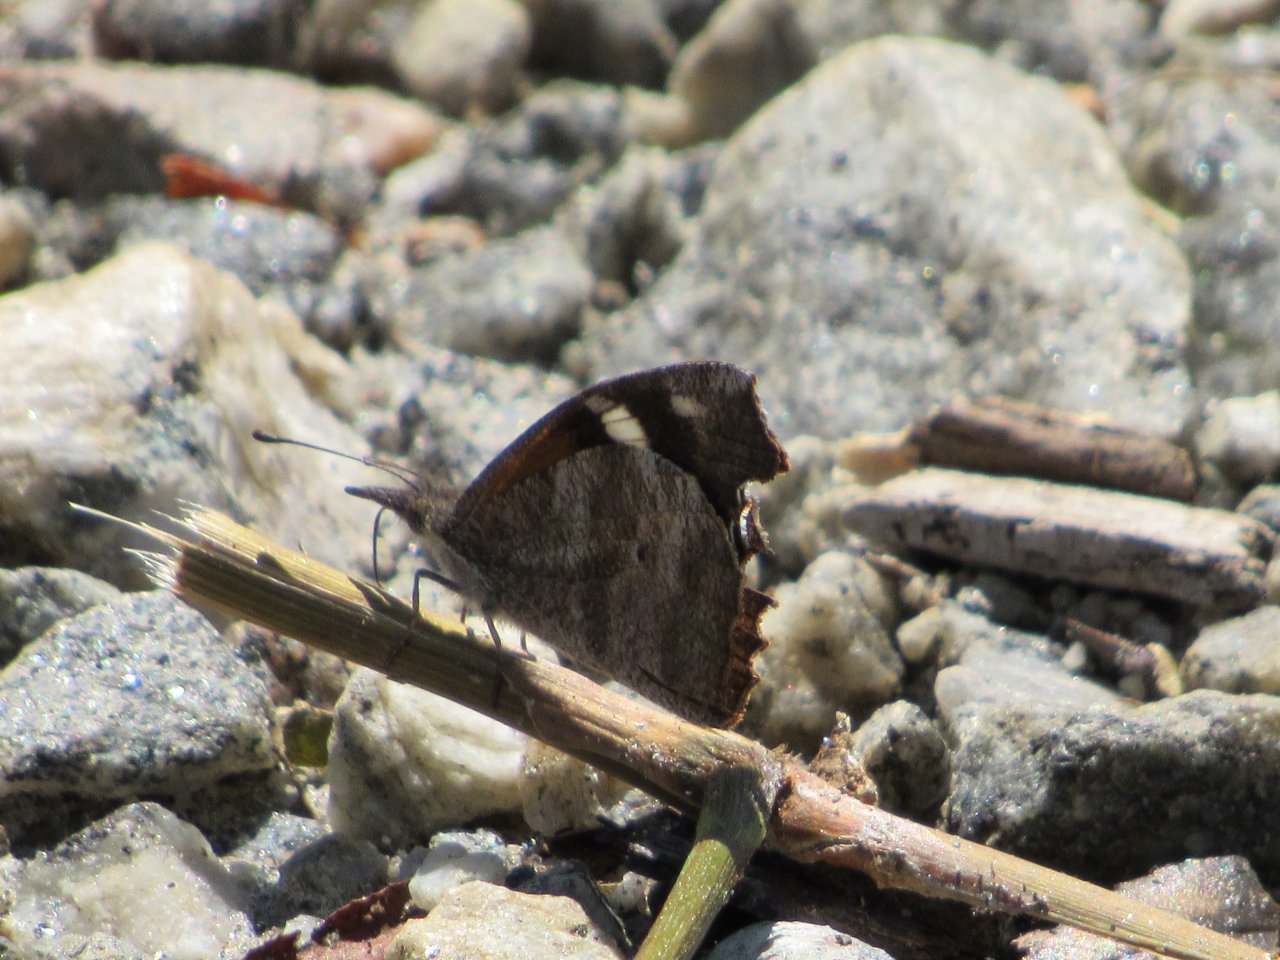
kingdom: Animalia
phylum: Arthropoda
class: Insecta
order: Lepidoptera
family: Nymphalidae
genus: Libytheana
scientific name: Libytheana carinenta
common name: American Snout
